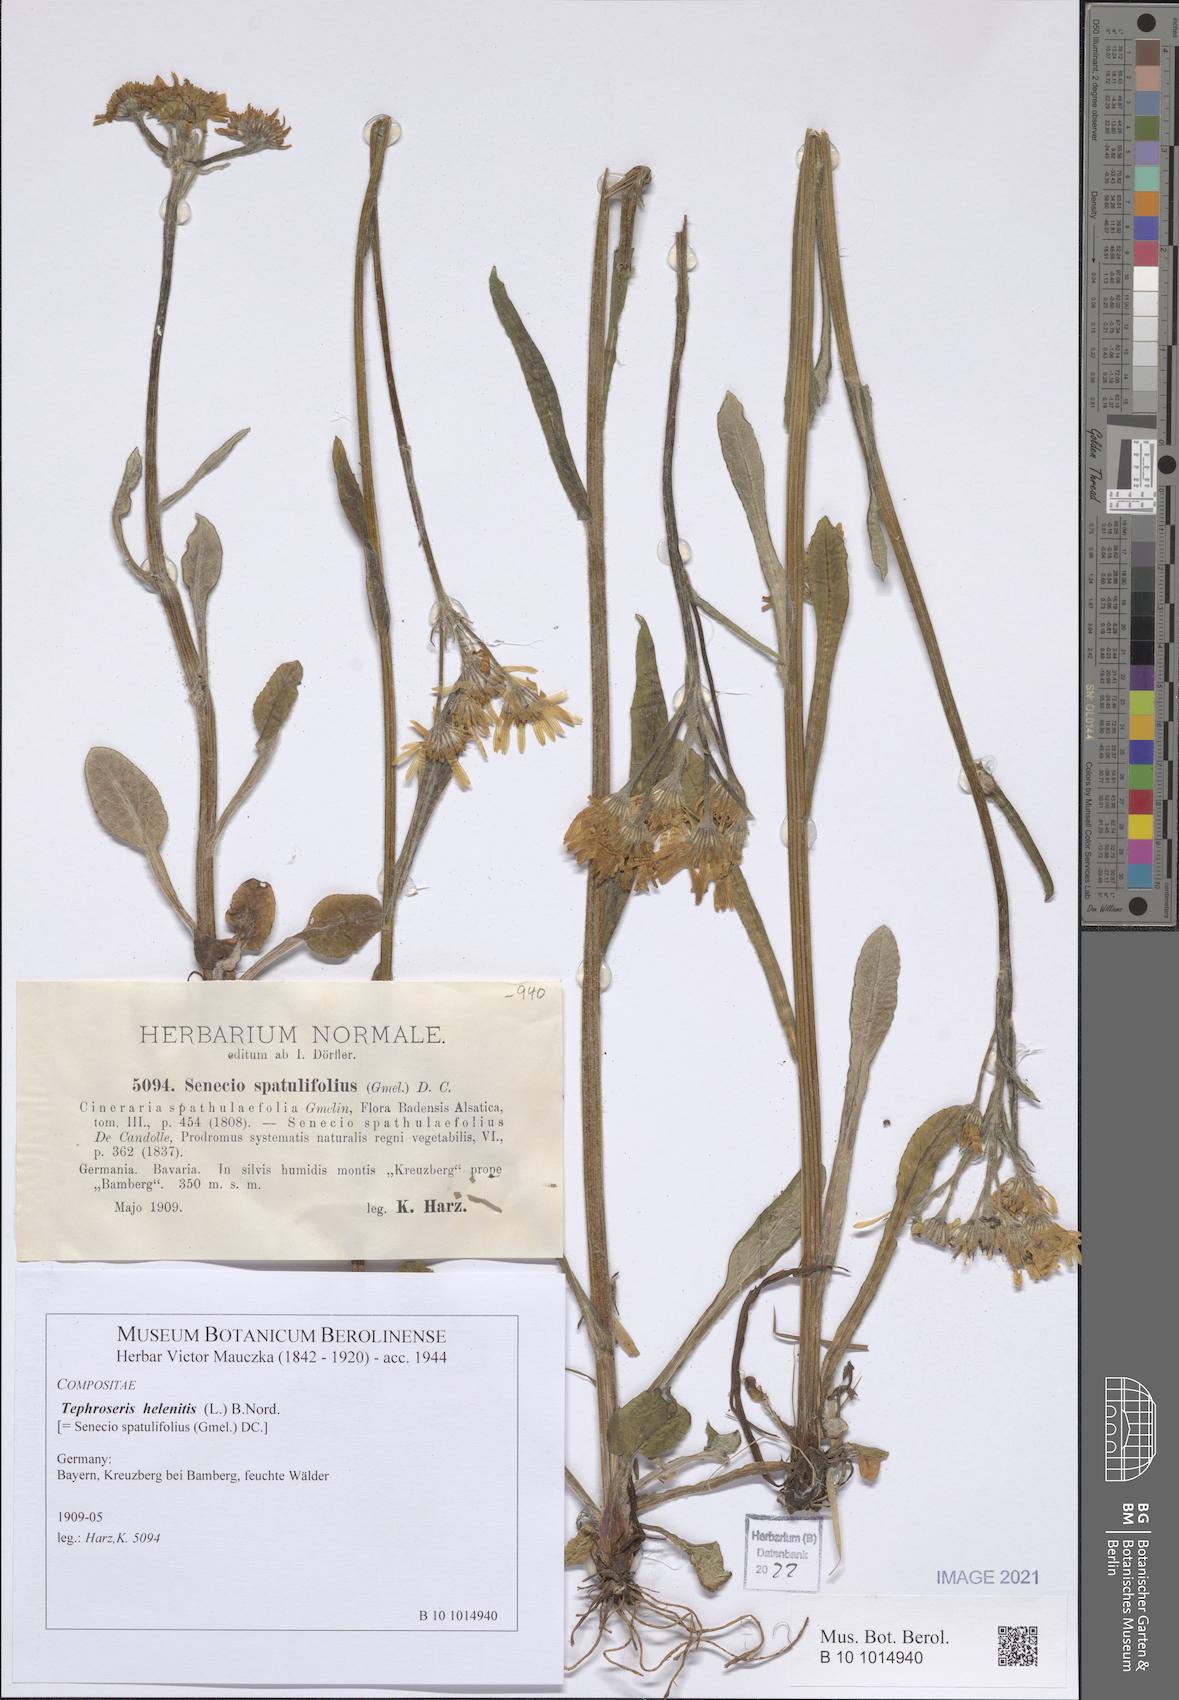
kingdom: Plantae
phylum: Tracheophyta
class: Magnoliopsida
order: Asterales
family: Asteraceae
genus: Tephroseris
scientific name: Tephroseris helenitis
